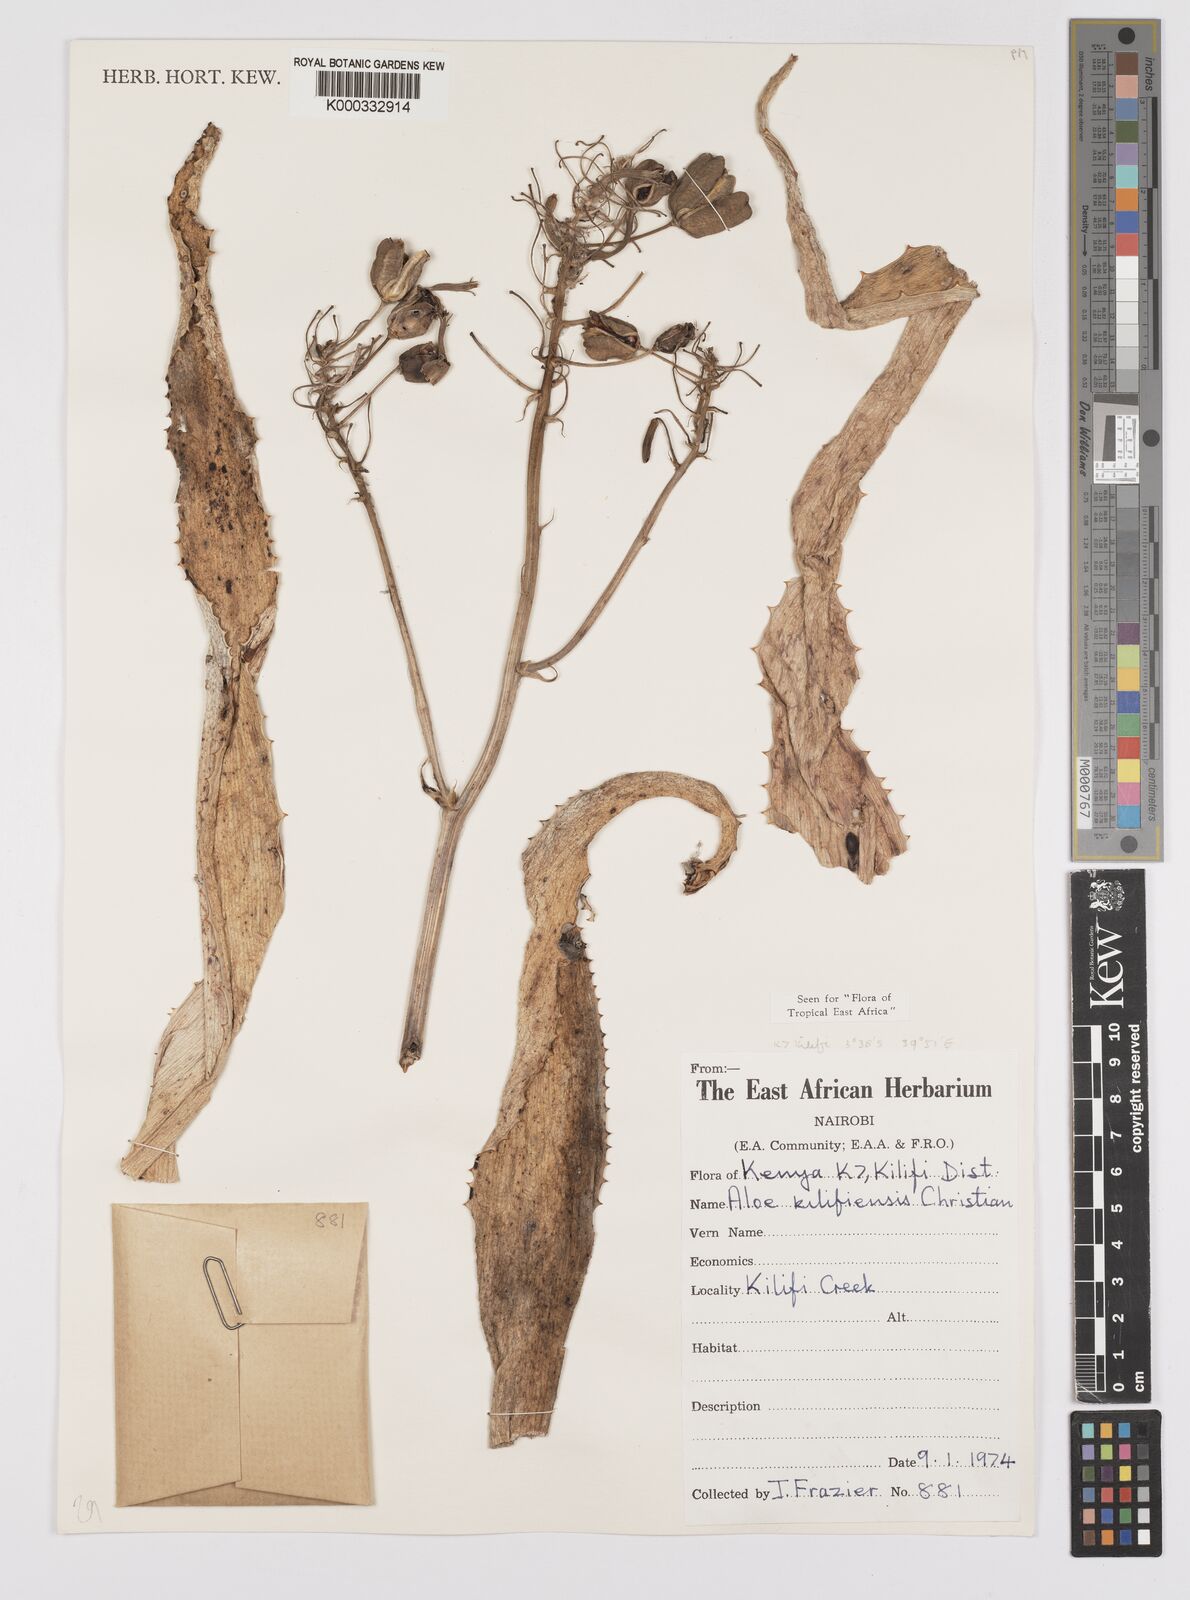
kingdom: Plantae
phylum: Tracheophyta
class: Liliopsida
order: Asparagales
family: Asphodelaceae
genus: Aloe
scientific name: Aloe kilifiensis
